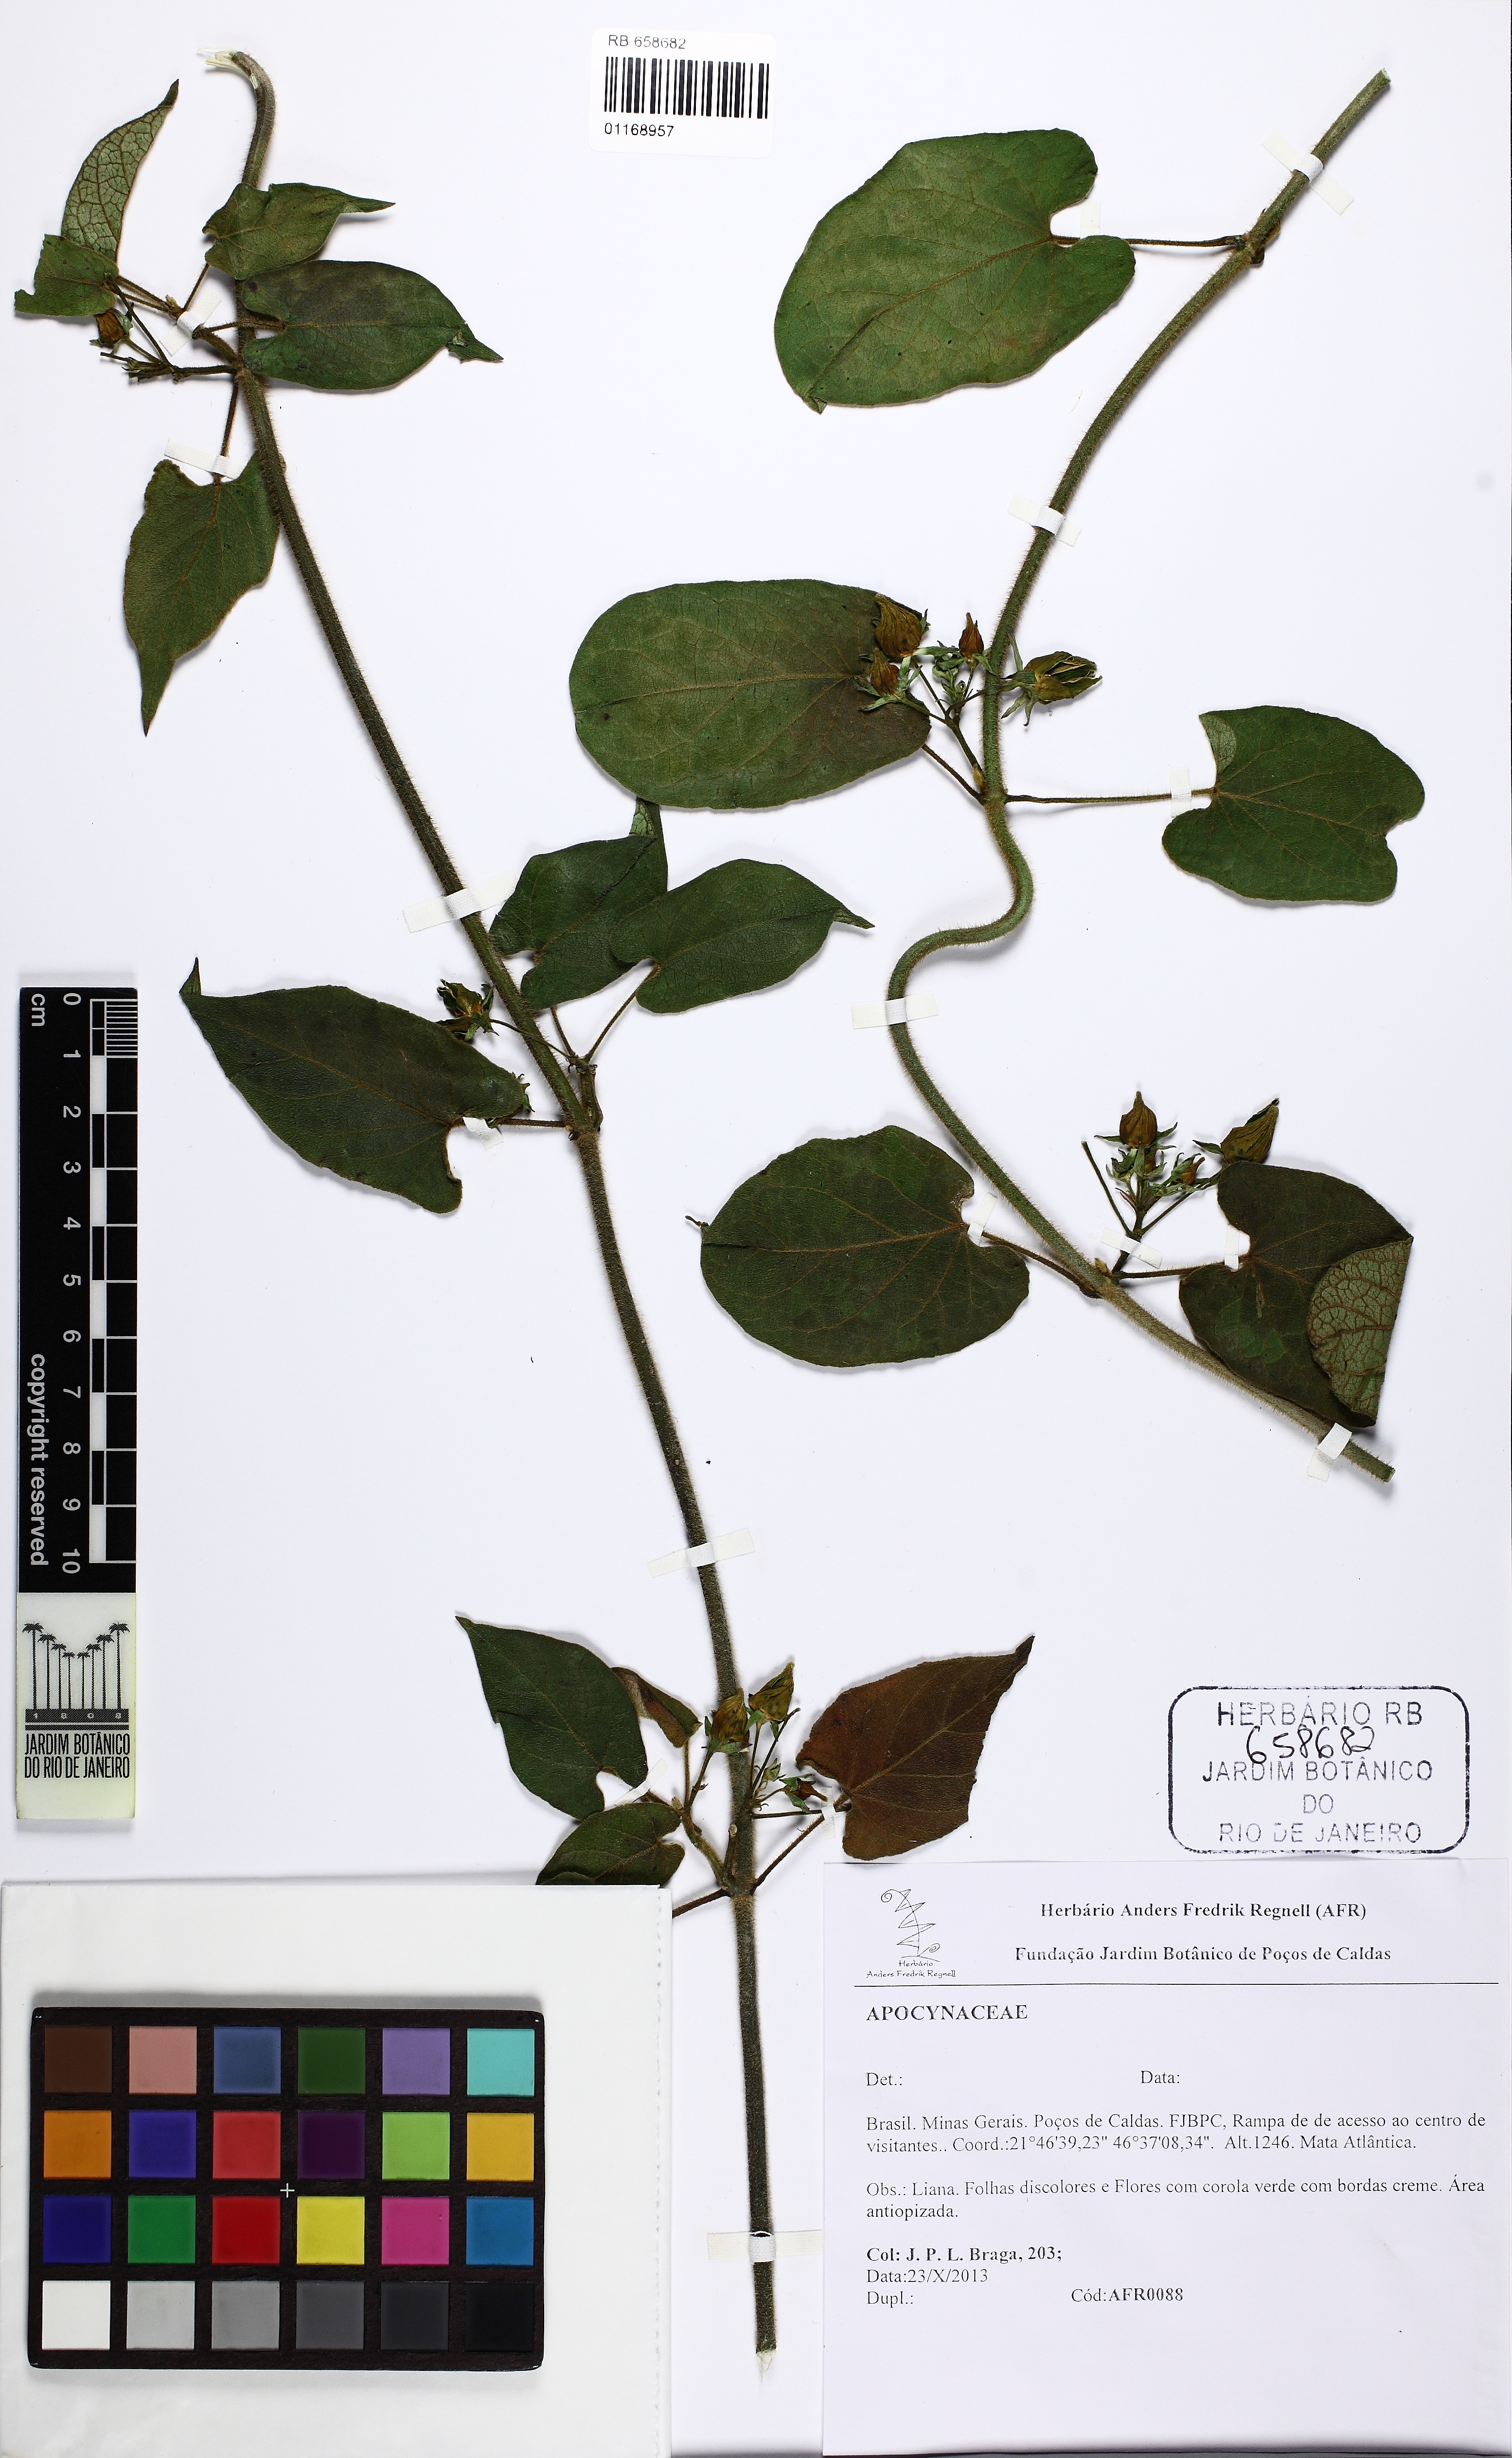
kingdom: Plantae
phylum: Tracheophyta
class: Magnoliopsida
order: Gentianales
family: Apocynaceae
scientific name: Apocynaceae
